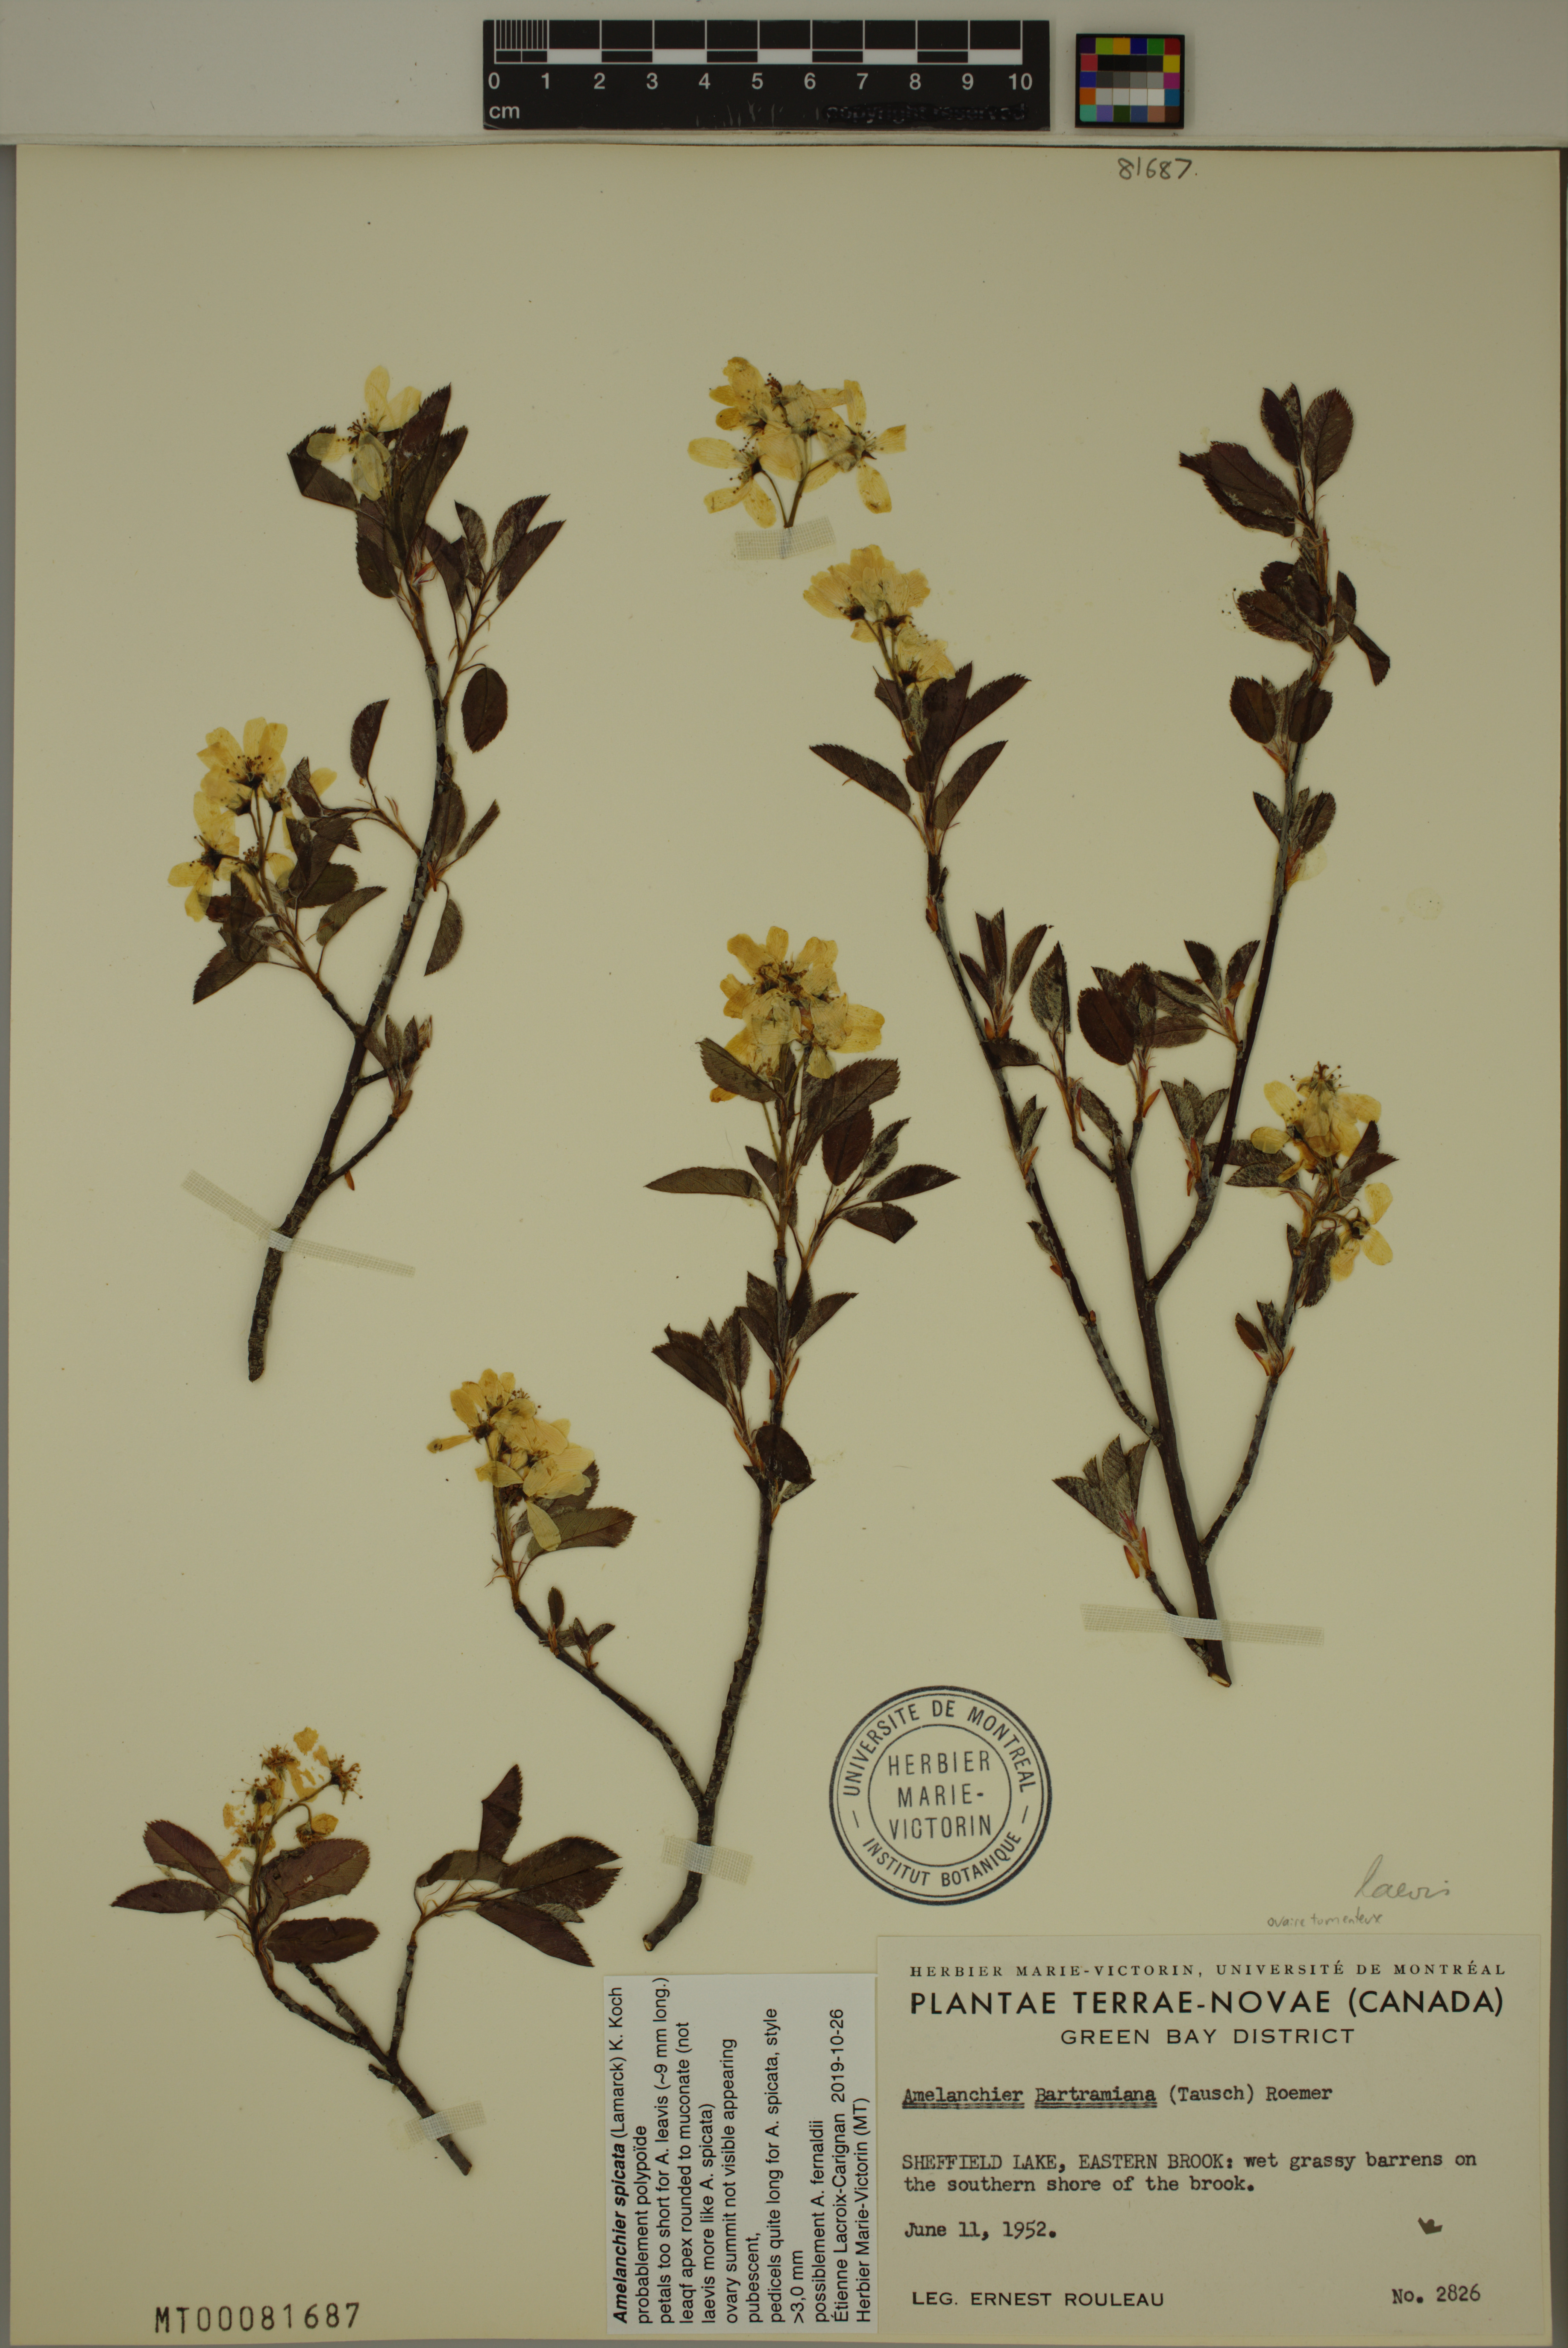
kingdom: Plantae
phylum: Tracheophyta
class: Magnoliopsida
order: Rosales
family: Rosaceae
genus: Amelanchier
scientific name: Amelanchier humilis
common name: Low juneberry
